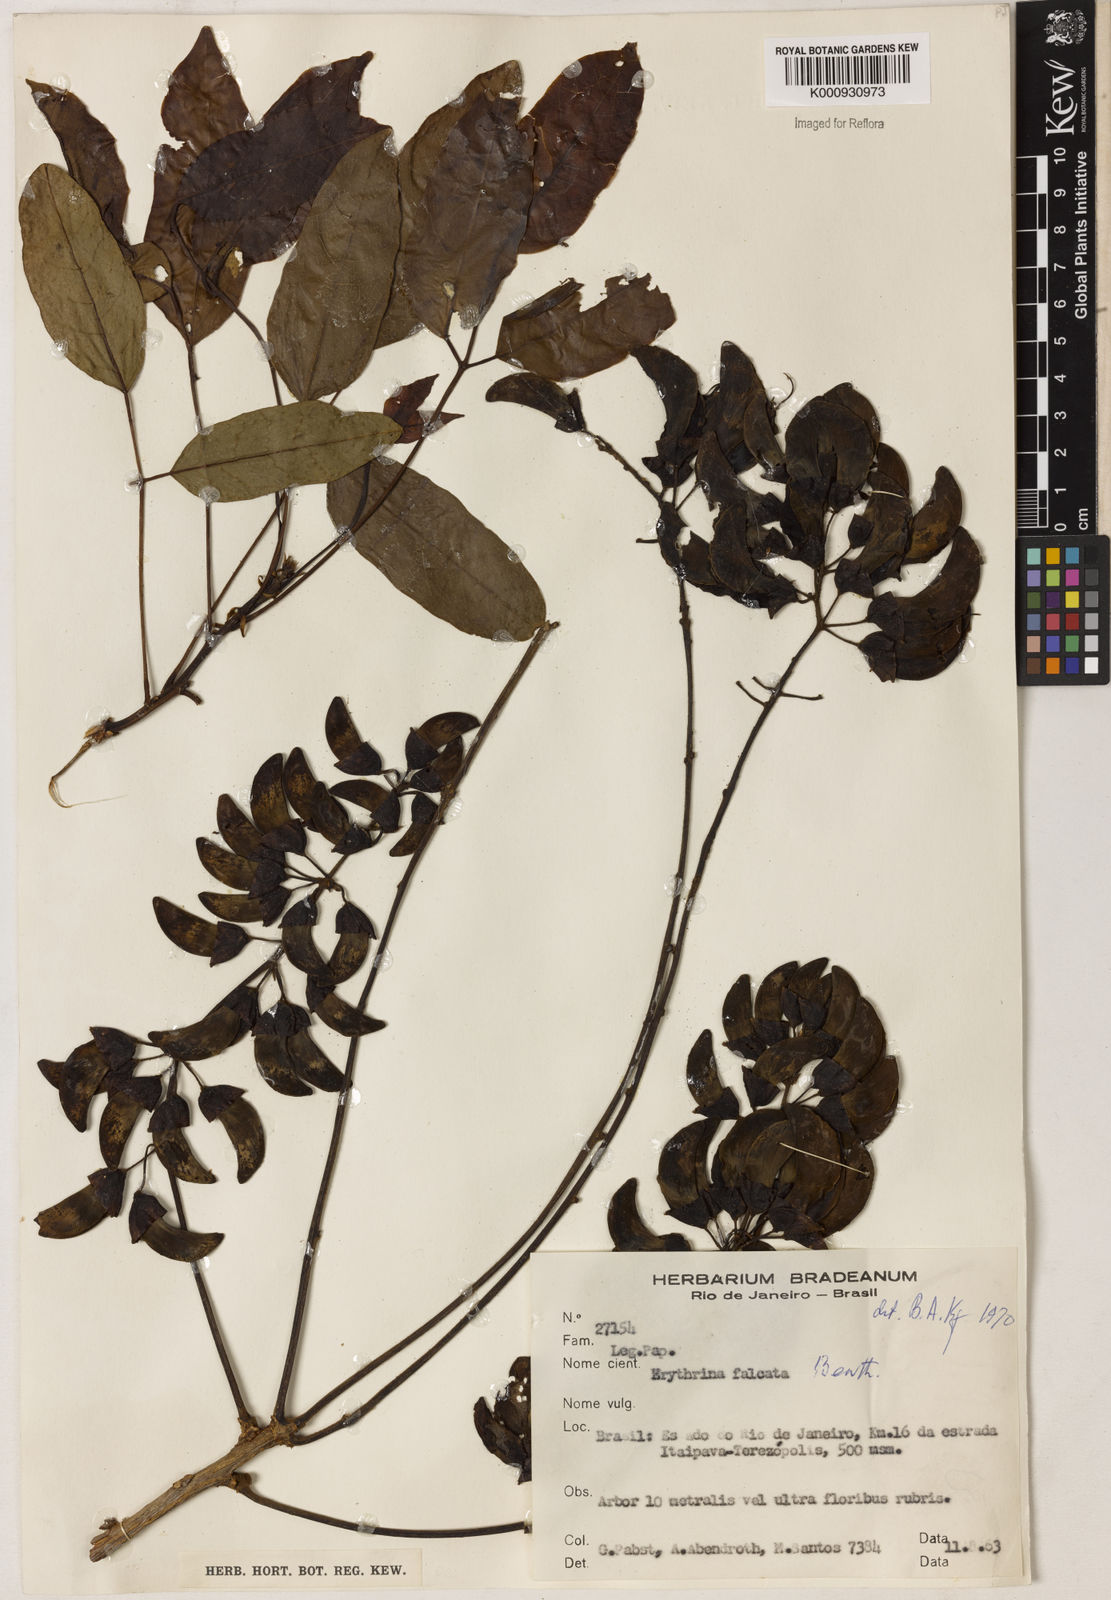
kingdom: Plantae
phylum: Tracheophyta
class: Magnoliopsida
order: Fabales
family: Fabaceae
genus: Erythrina
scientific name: Erythrina falcata
